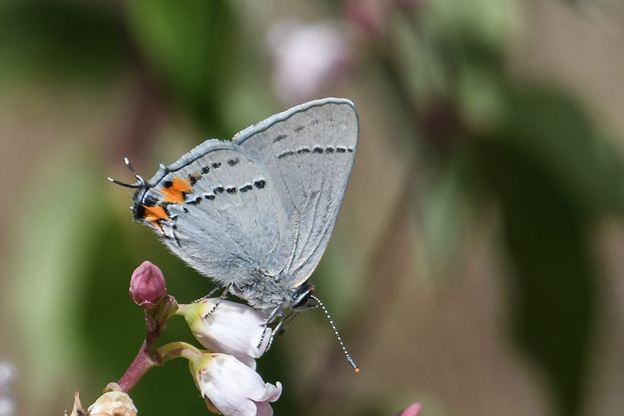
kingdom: Animalia
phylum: Arthropoda
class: Insecta
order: Lepidoptera
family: Lycaenidae
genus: Strymon
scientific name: Strymon melinus
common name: Gray Hairstreak
